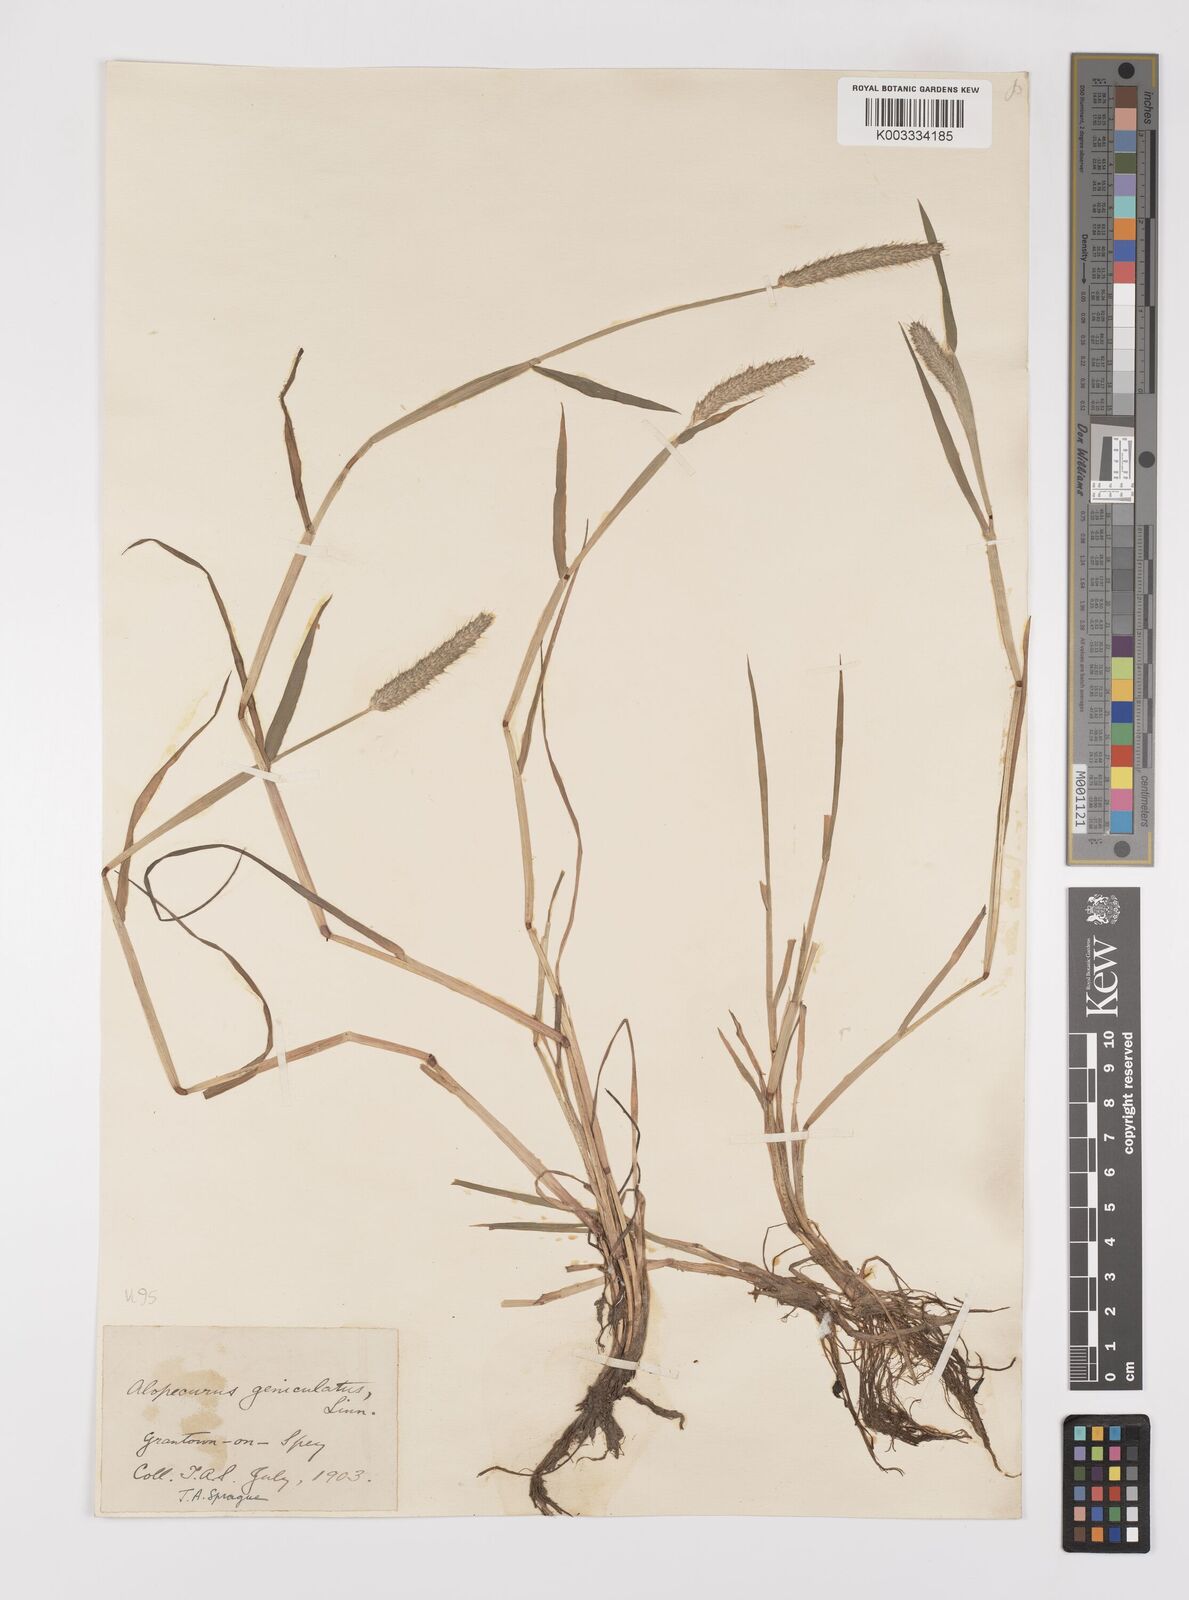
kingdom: Plantae
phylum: Tracheophyta
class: Liliopsida
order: Poales
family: Poaceae
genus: Alopecurus
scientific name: Alopecurus geniculatus
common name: Water foxtail
